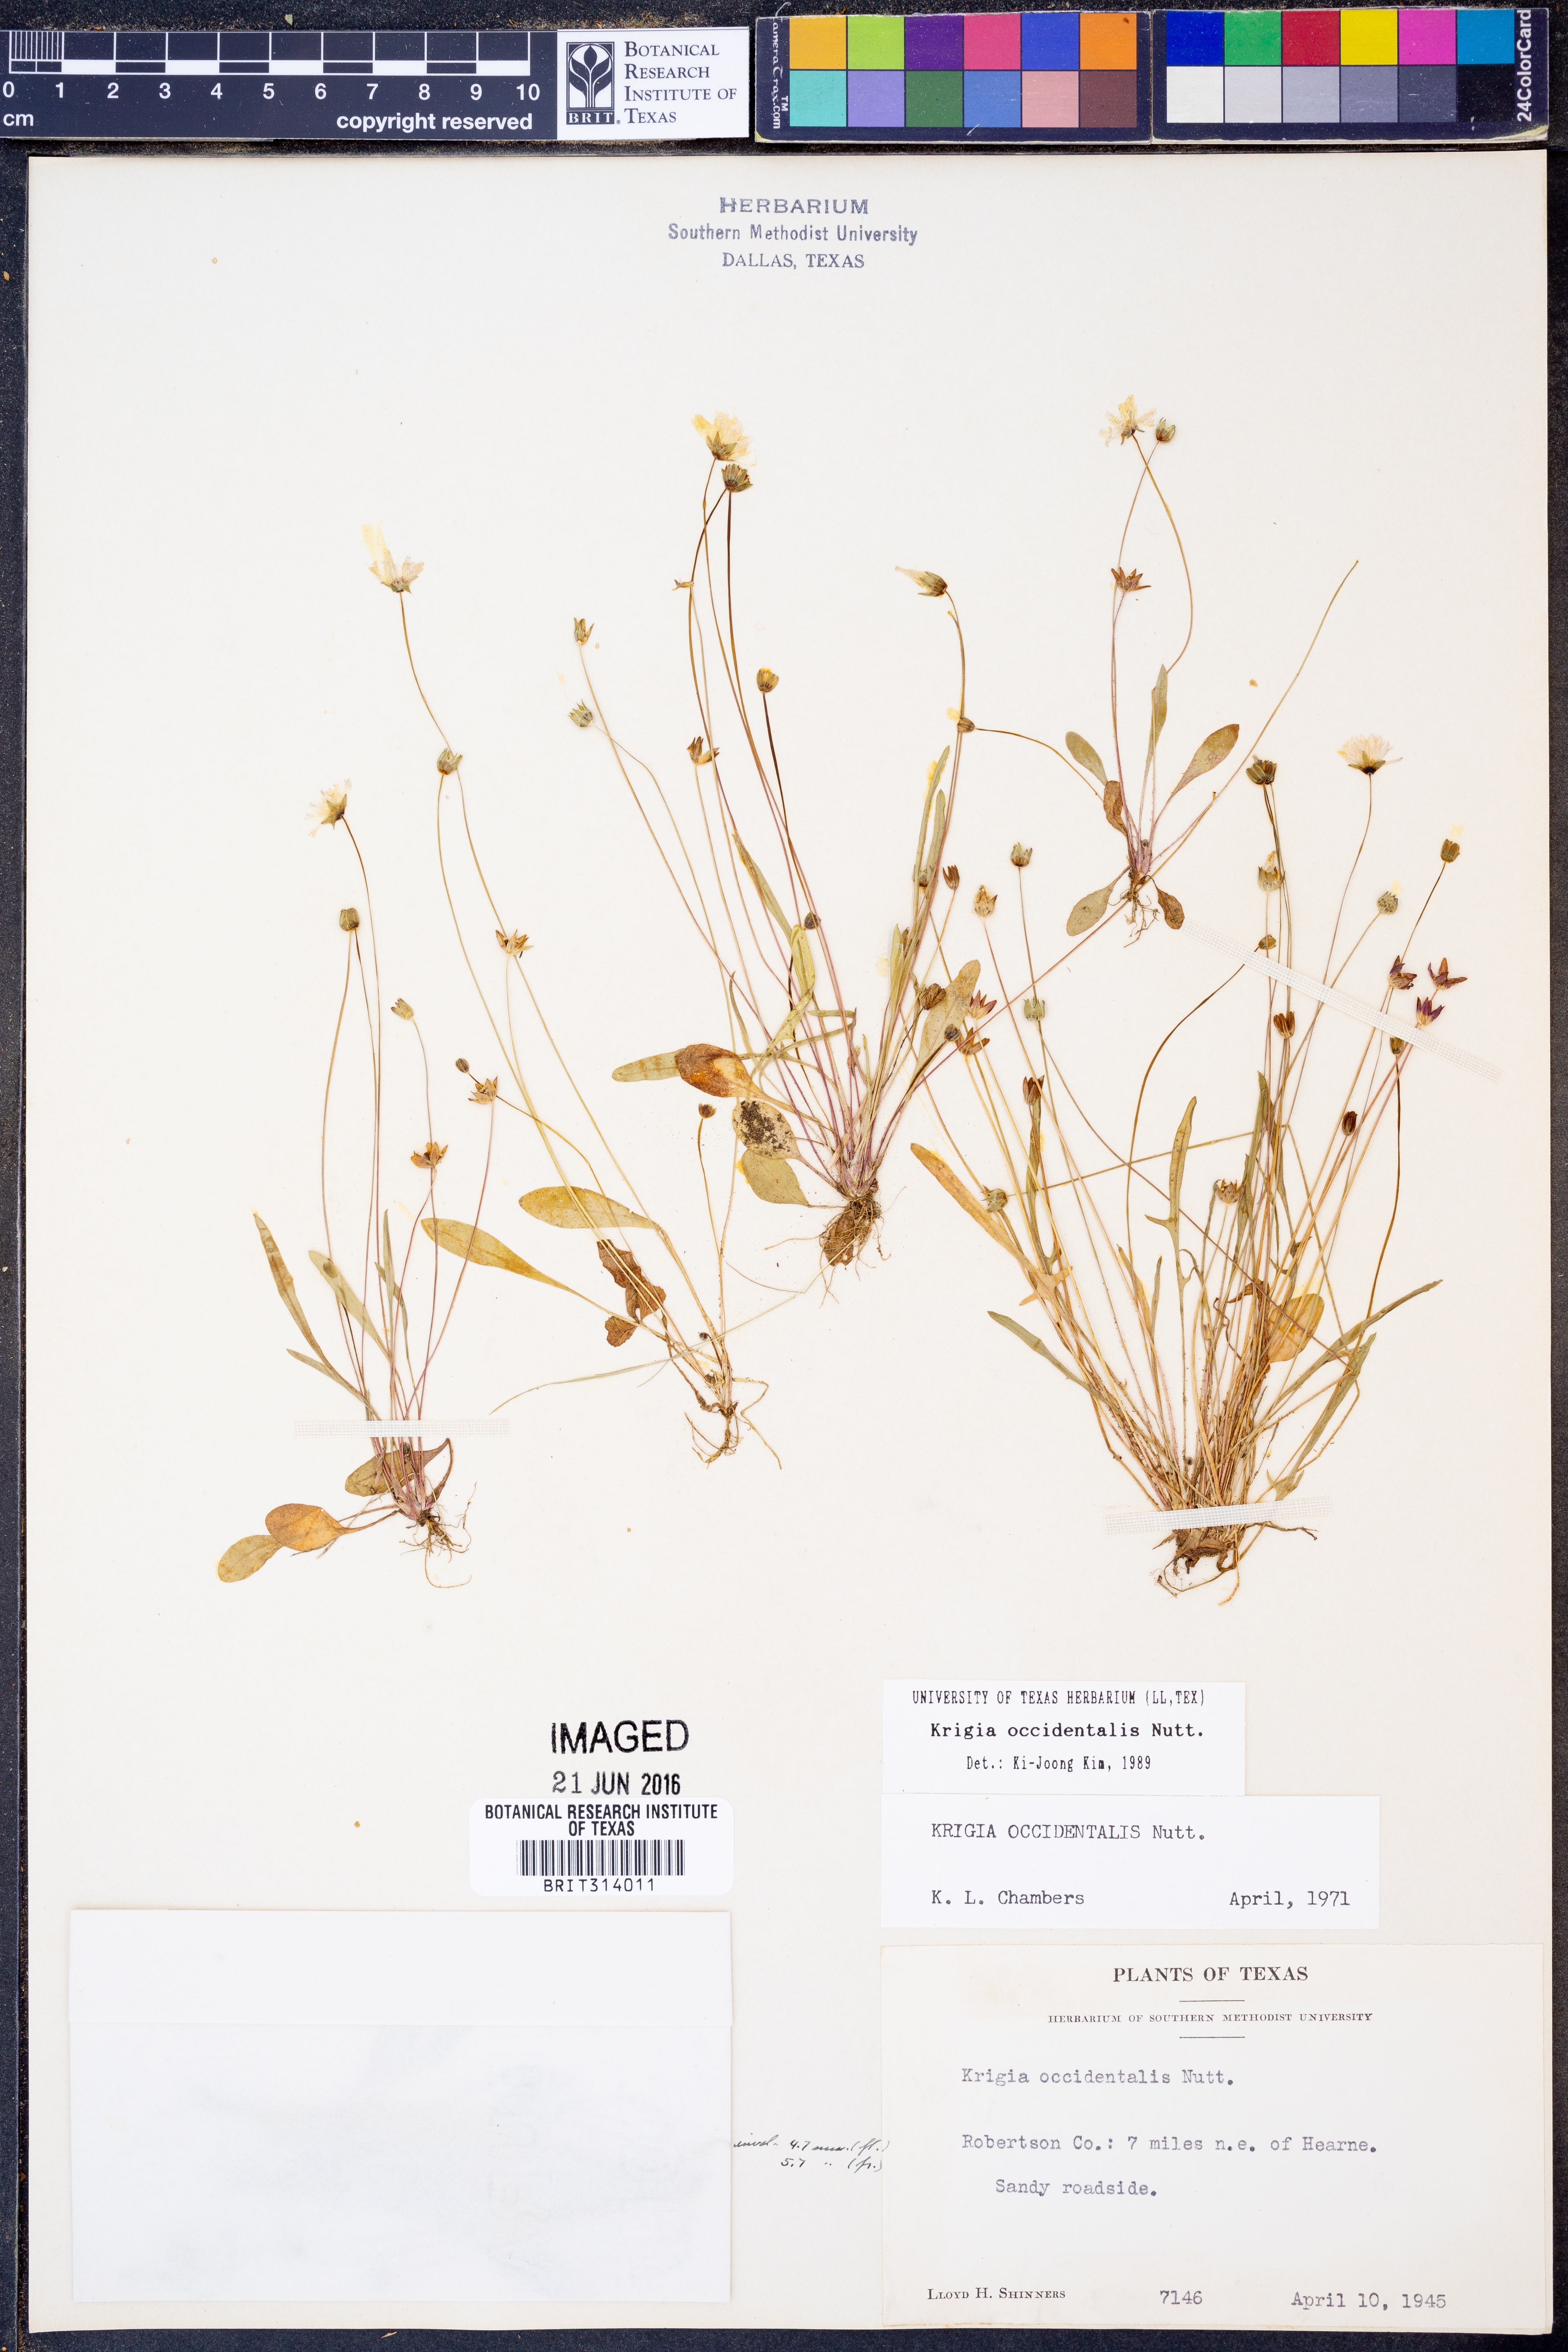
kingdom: Plantae
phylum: Tracheophyta
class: Magnoliopsida
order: Asterales
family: Asteraceae
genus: Krigia
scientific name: Krigia occidentalis
